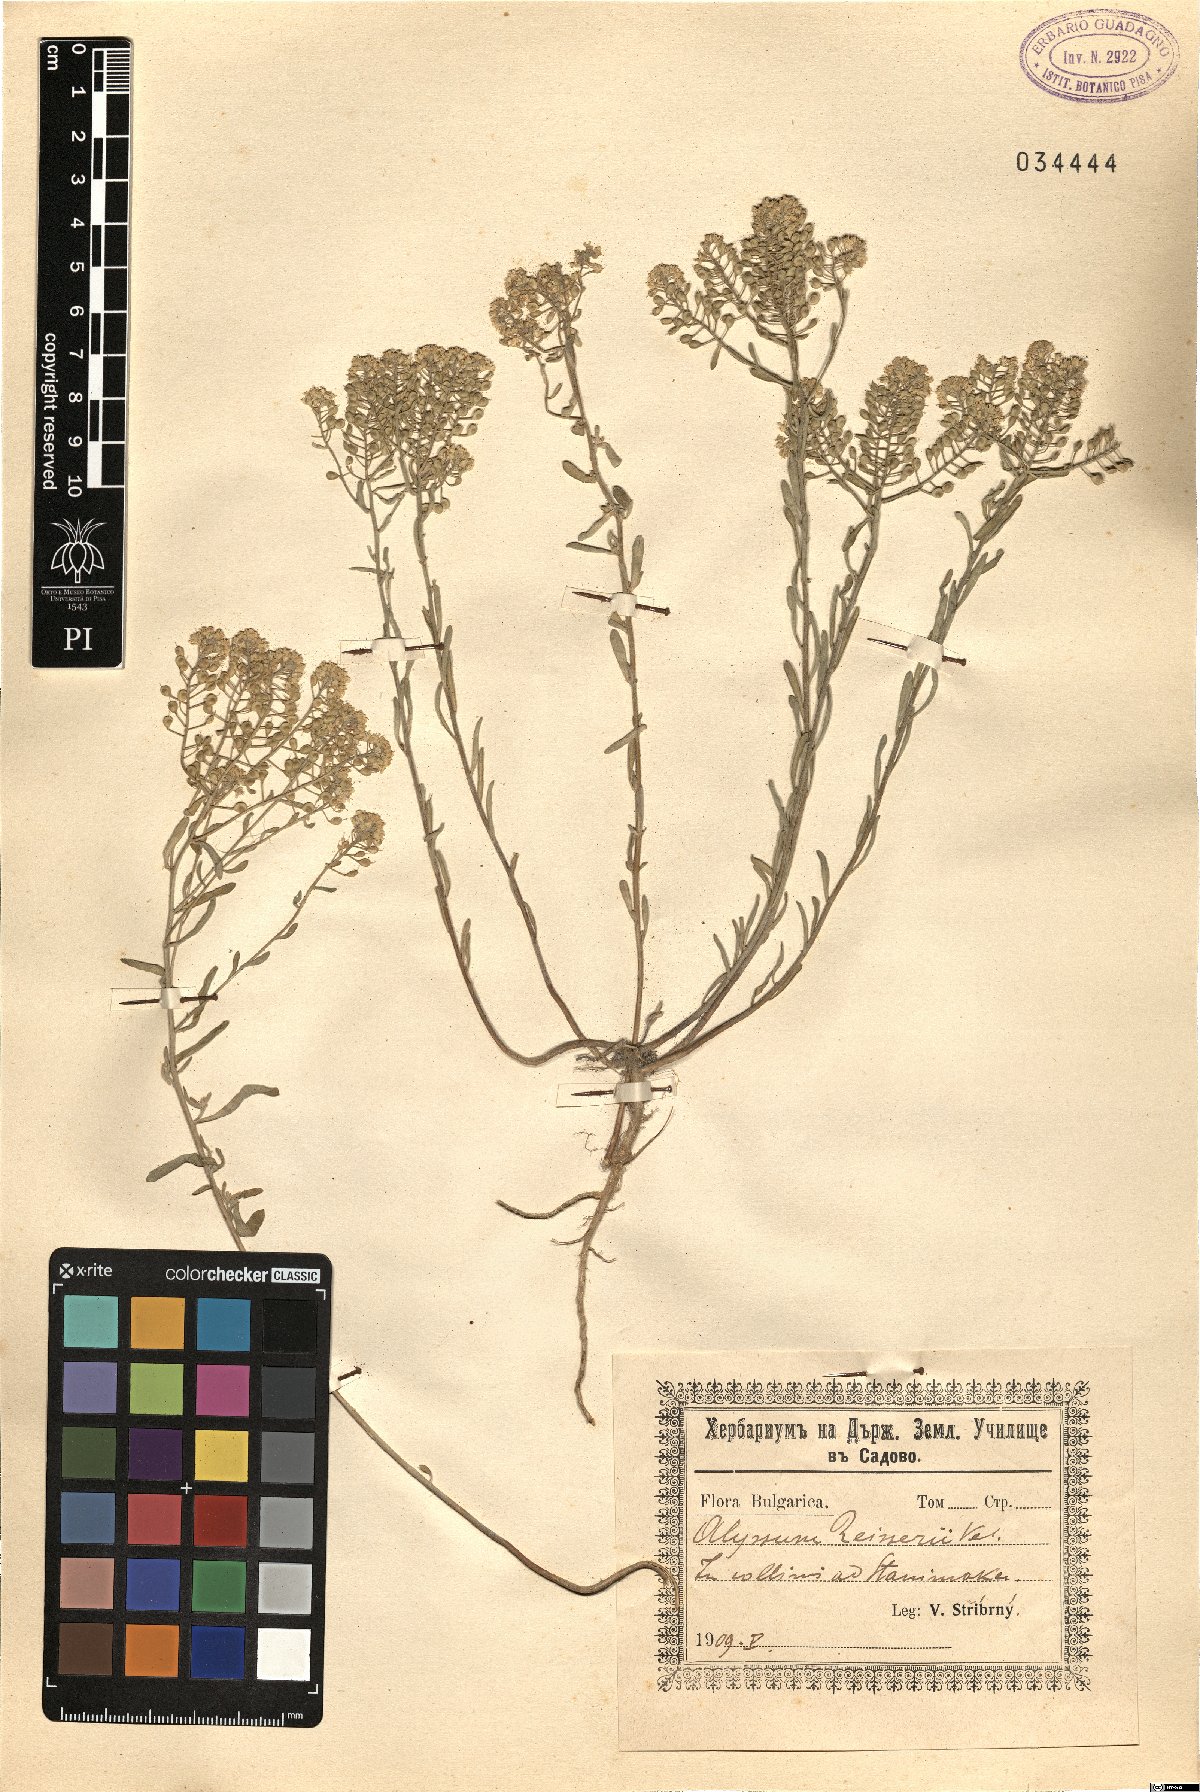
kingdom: Plantae
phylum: Tracheophyta
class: Magnoliopsida
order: Brassicales
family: Brassicaceae
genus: Alyssum
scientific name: Alyssum reiseri
